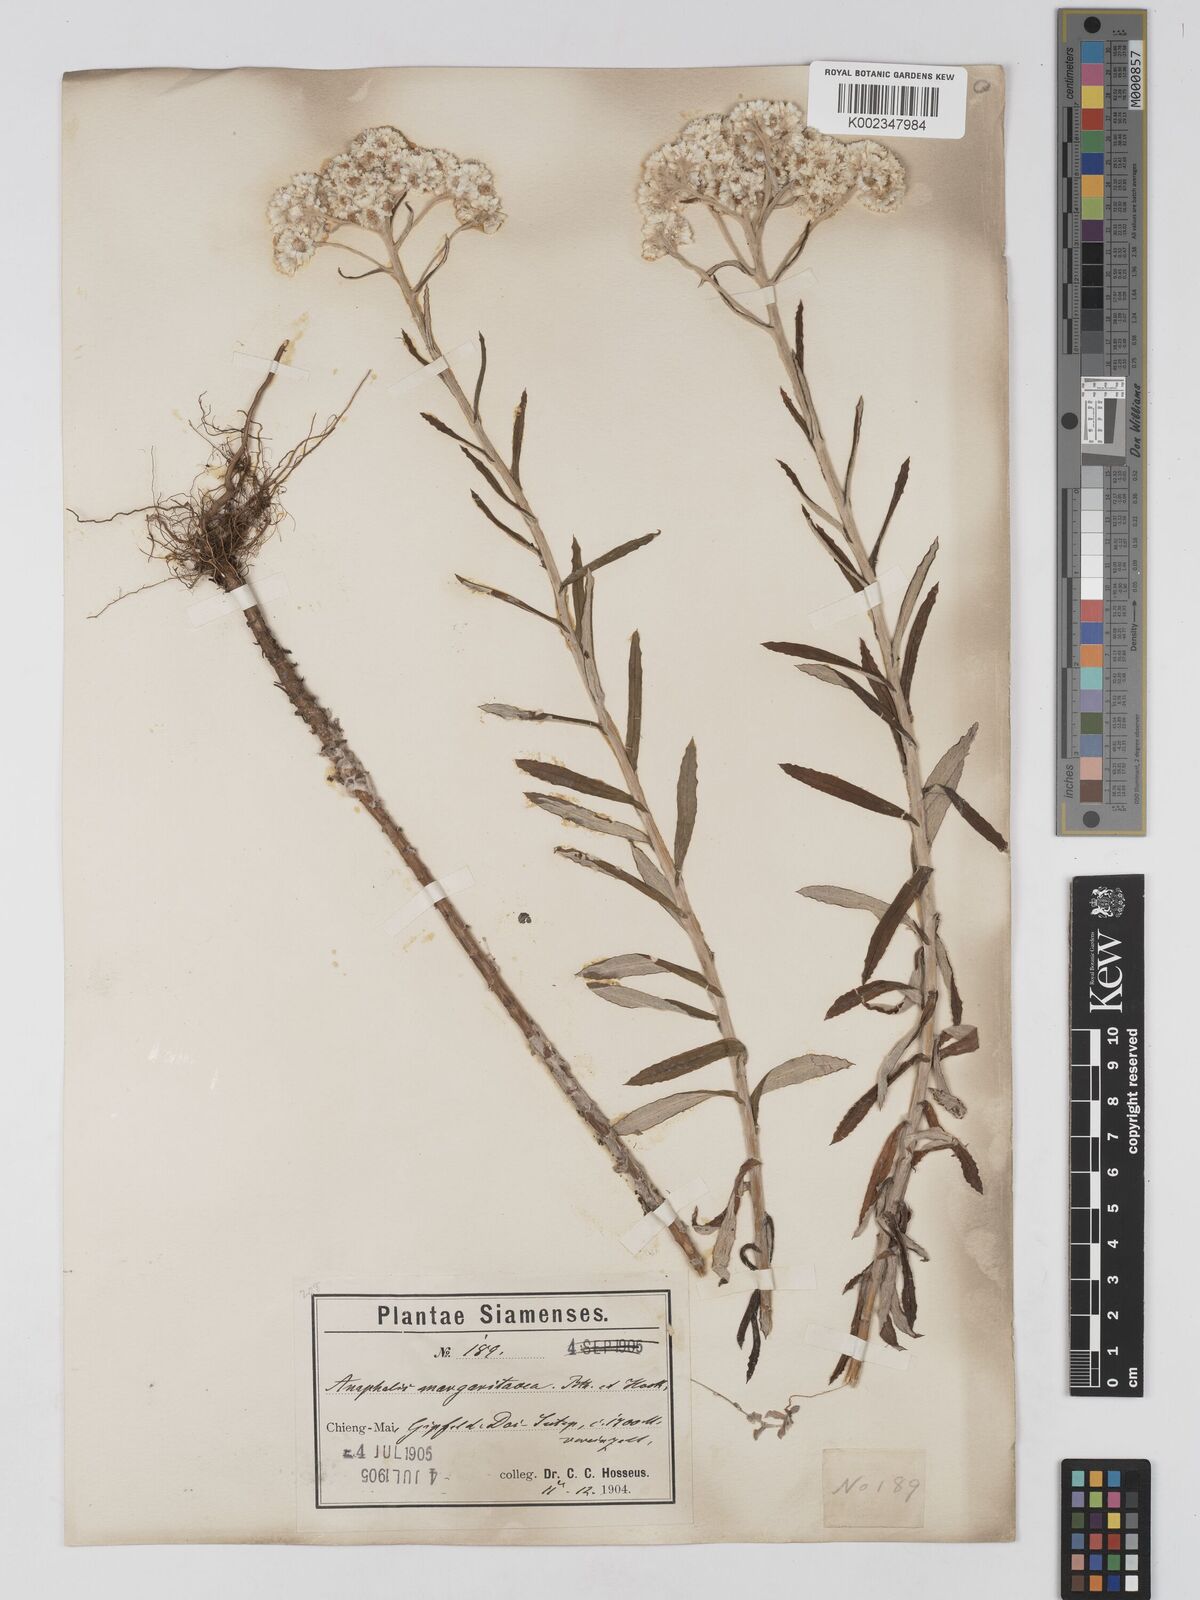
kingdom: Plantae
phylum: Tracheophyta
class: Magnoliopsida
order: Asterales
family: Asteraceae
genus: Anaphalis
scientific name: Anaphalis margaritacea
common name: Pearly everlasting
